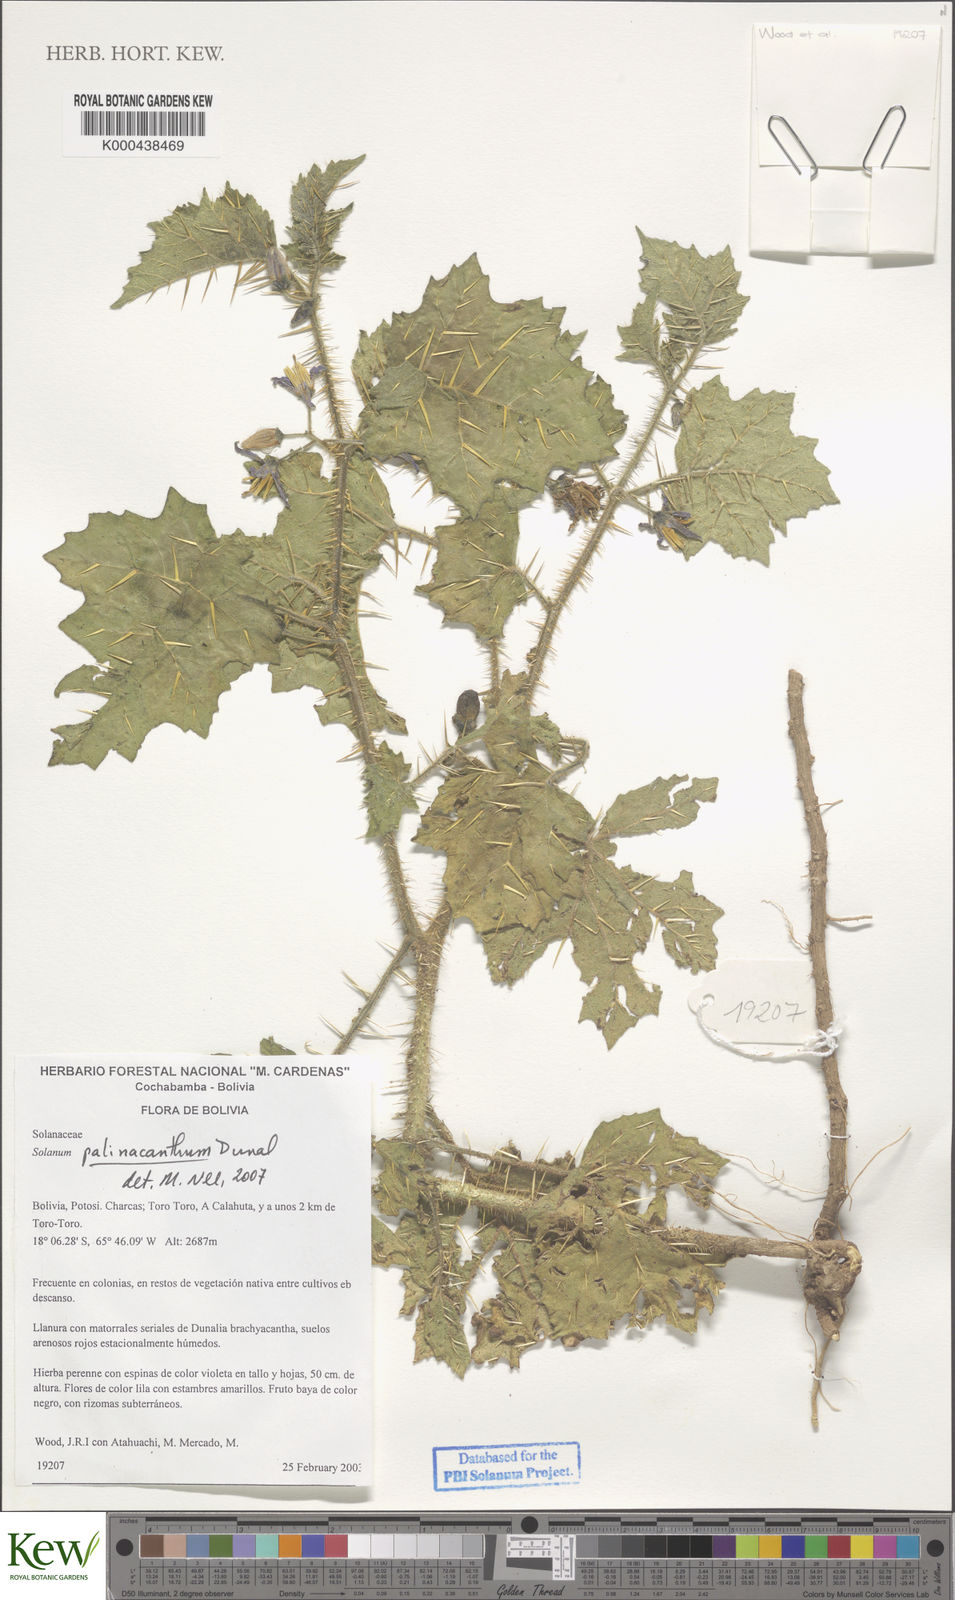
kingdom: Plantae
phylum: Tracheophyta
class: Magnoliopsida
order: Solanales
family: Solanaceae
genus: Solanum
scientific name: Solanum palinacanthum
